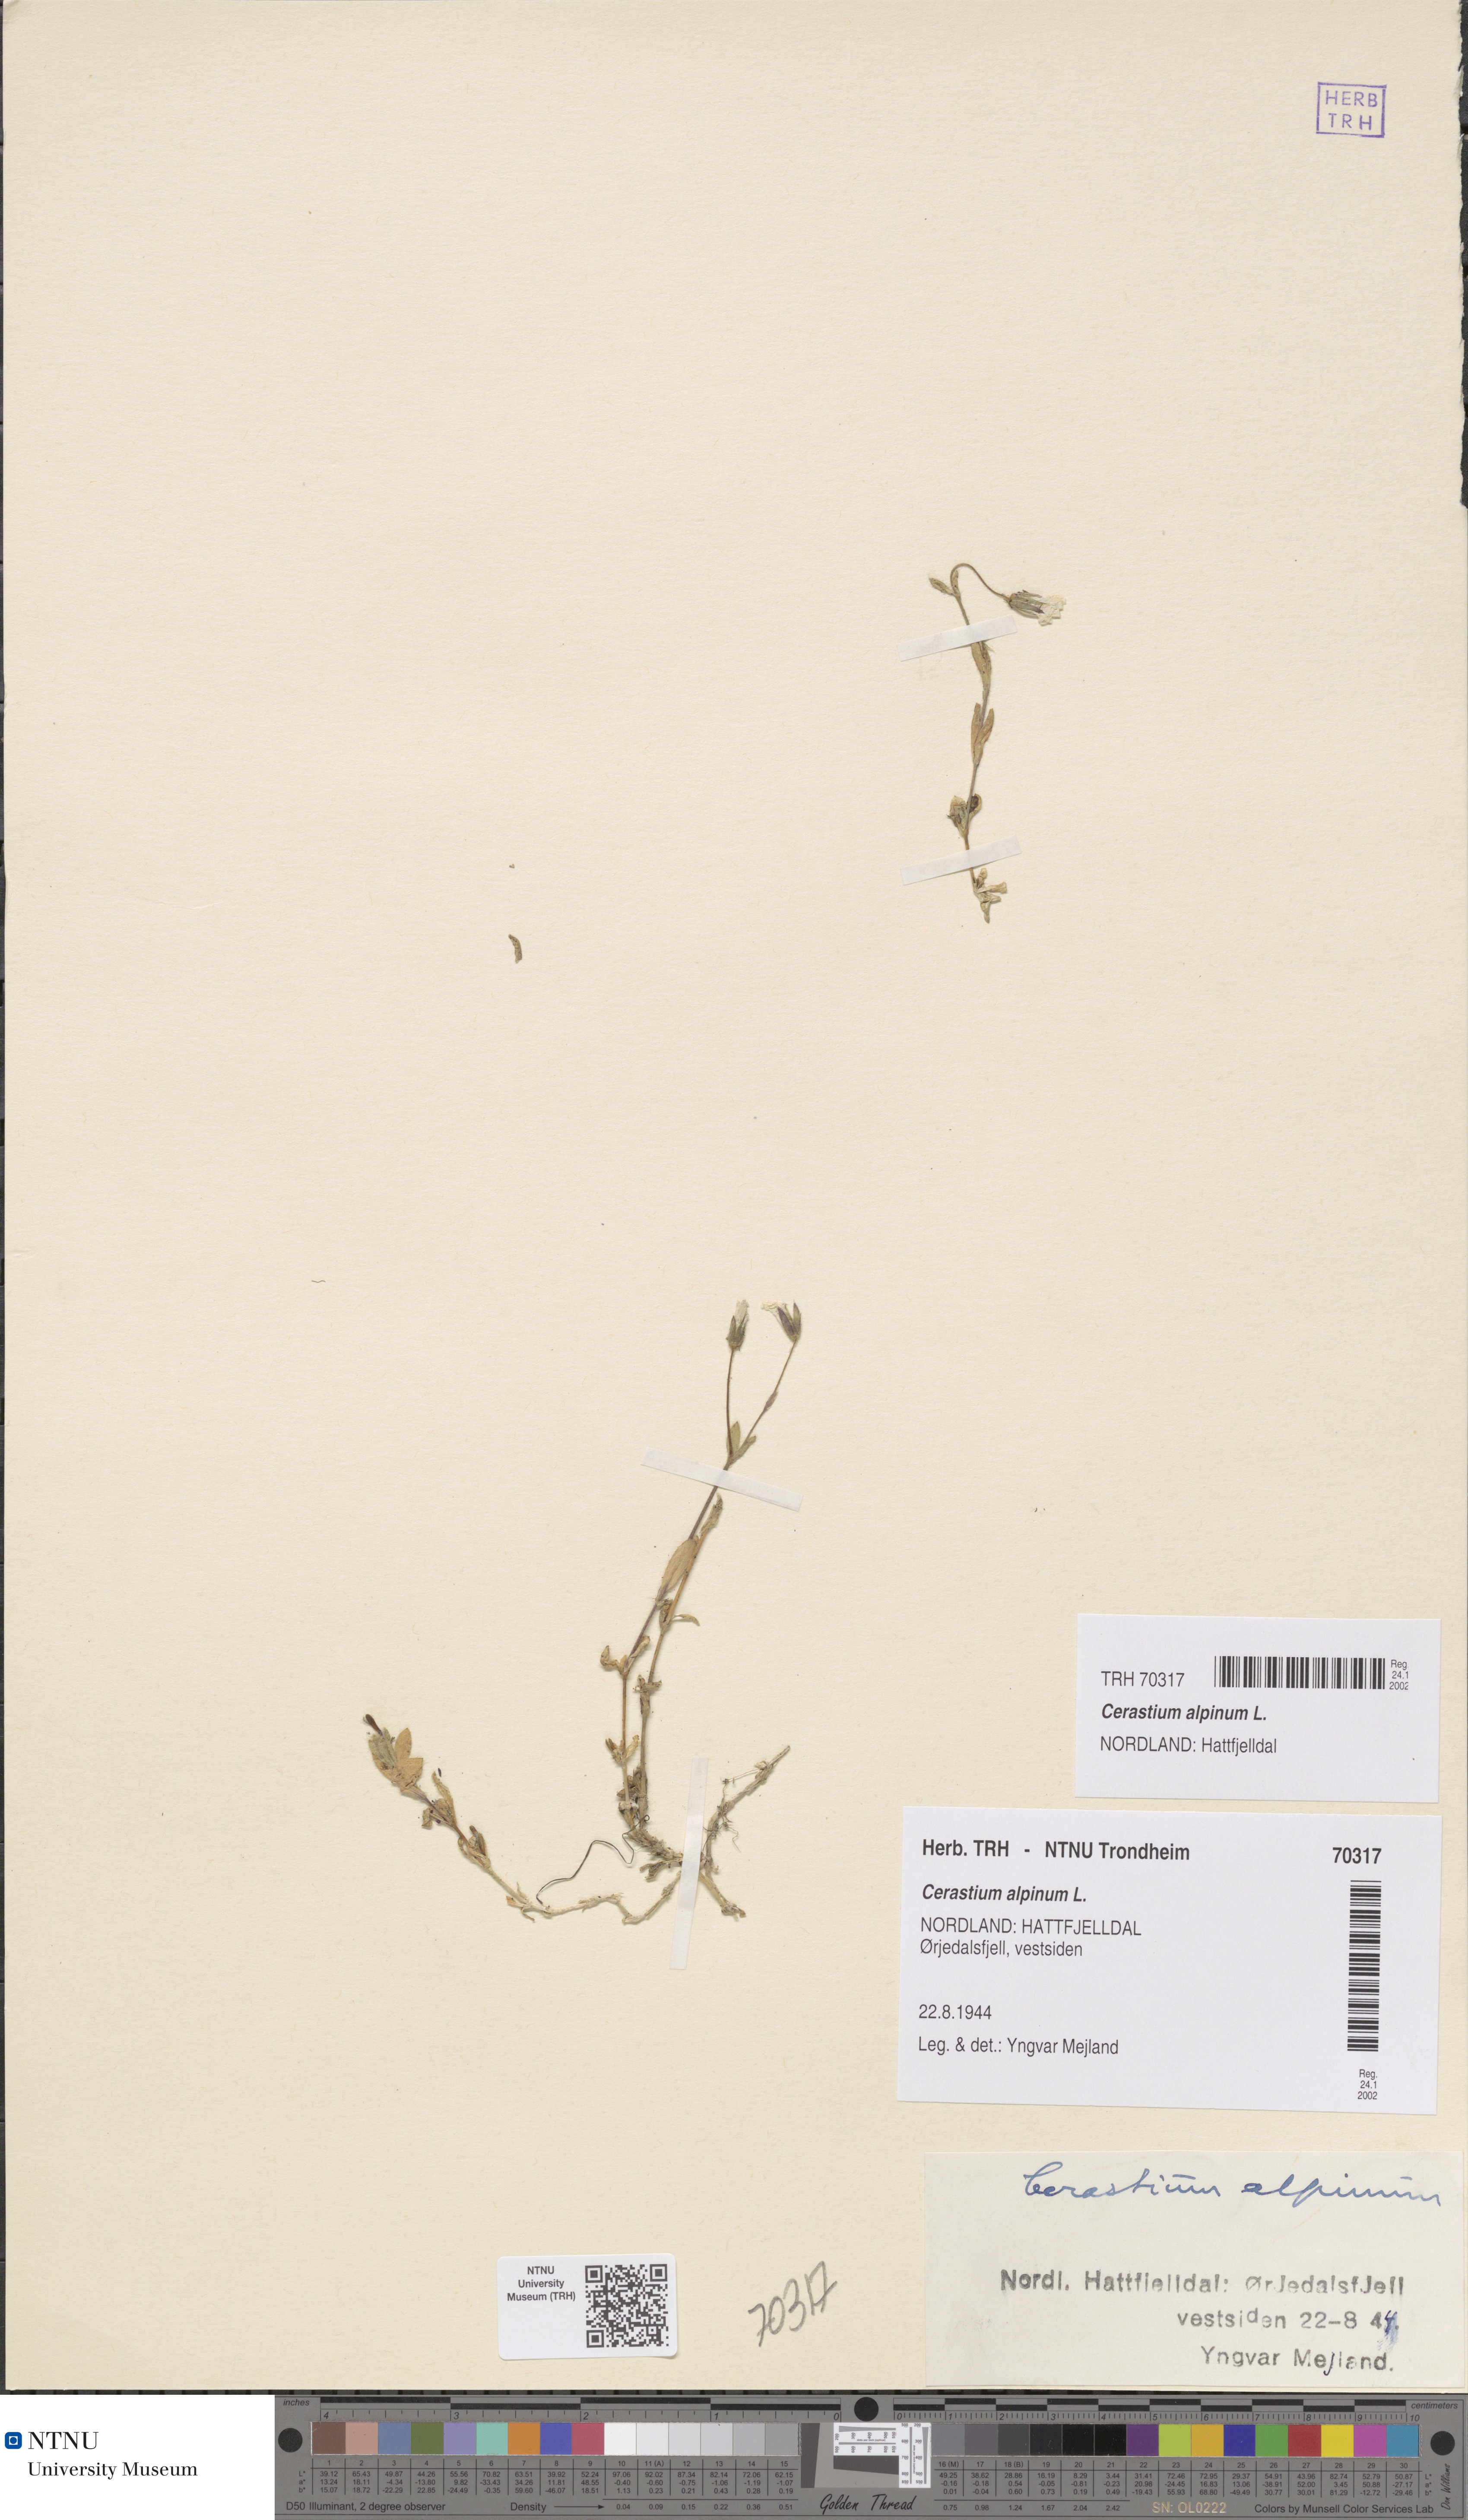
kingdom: Plantae
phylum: Tracheophyta
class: Magnoliopsida
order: Caryophyllales
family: Caryophyllaceae
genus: Cerastium
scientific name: Cerastium alpinum
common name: Alpine mouse-ear
